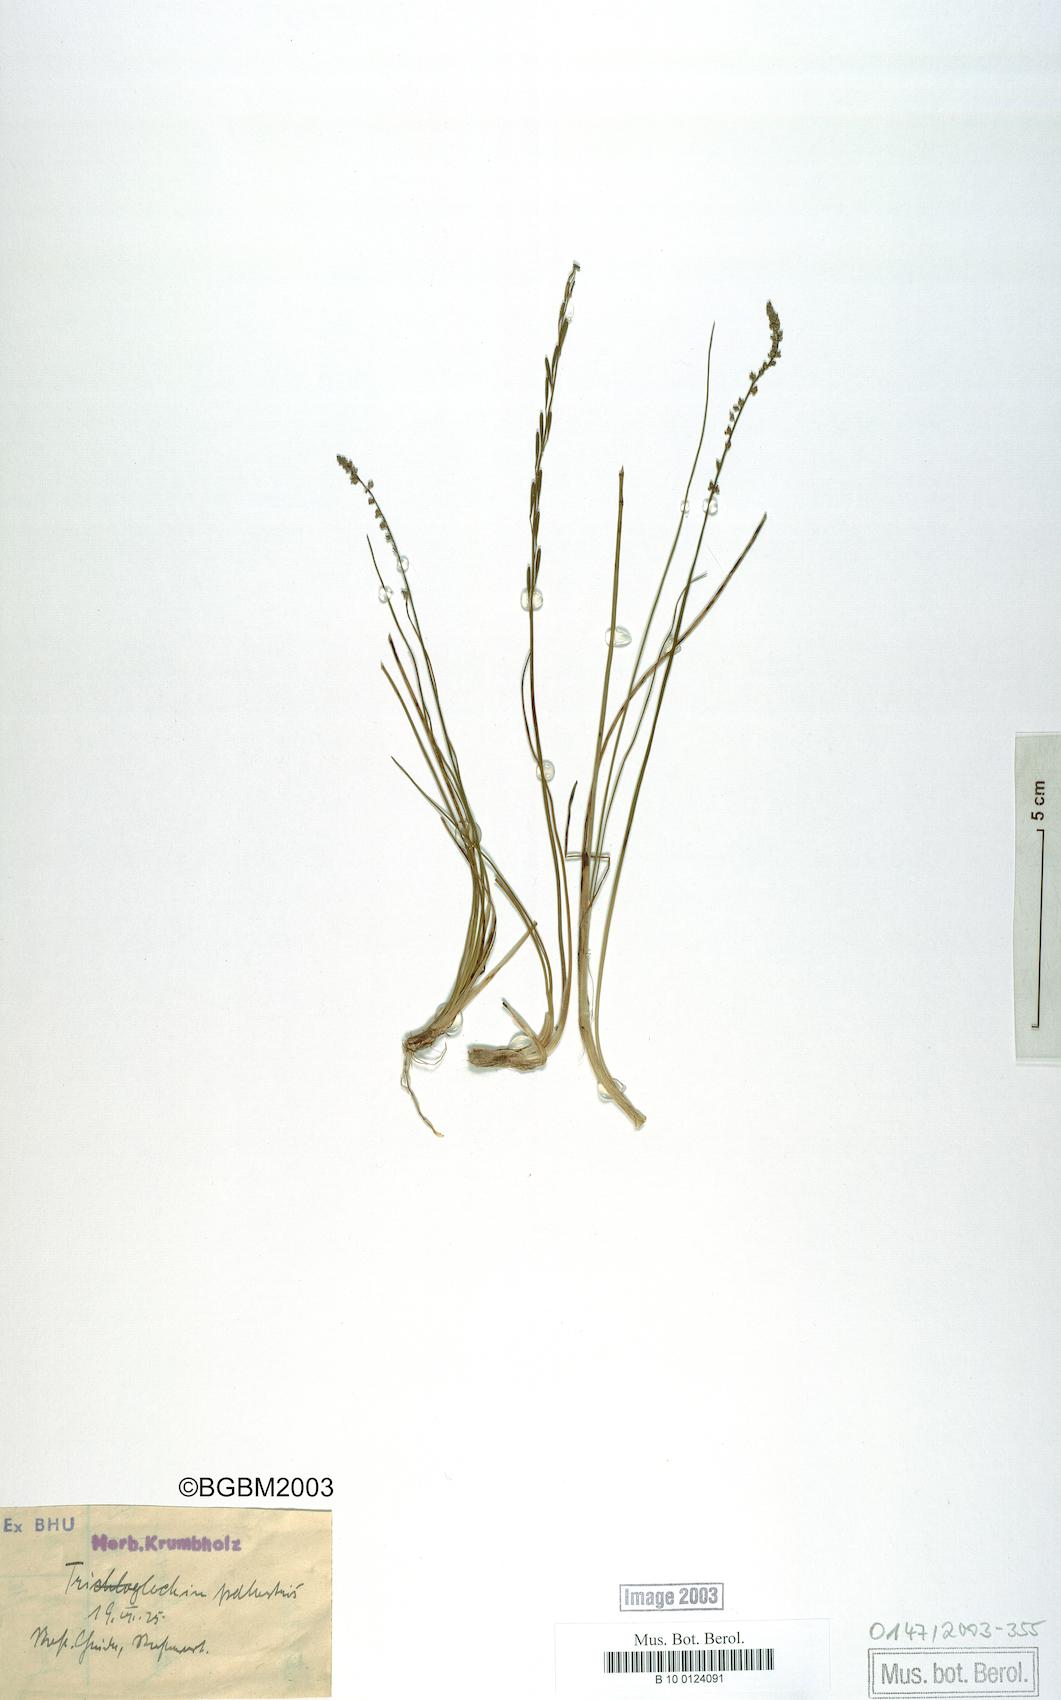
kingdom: Plantae
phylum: Tracheophyta
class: Liliopsida
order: Alismatales
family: Juncaginaceae
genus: Triglochin
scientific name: Triglochin palustris
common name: Marsh arrowgrass
